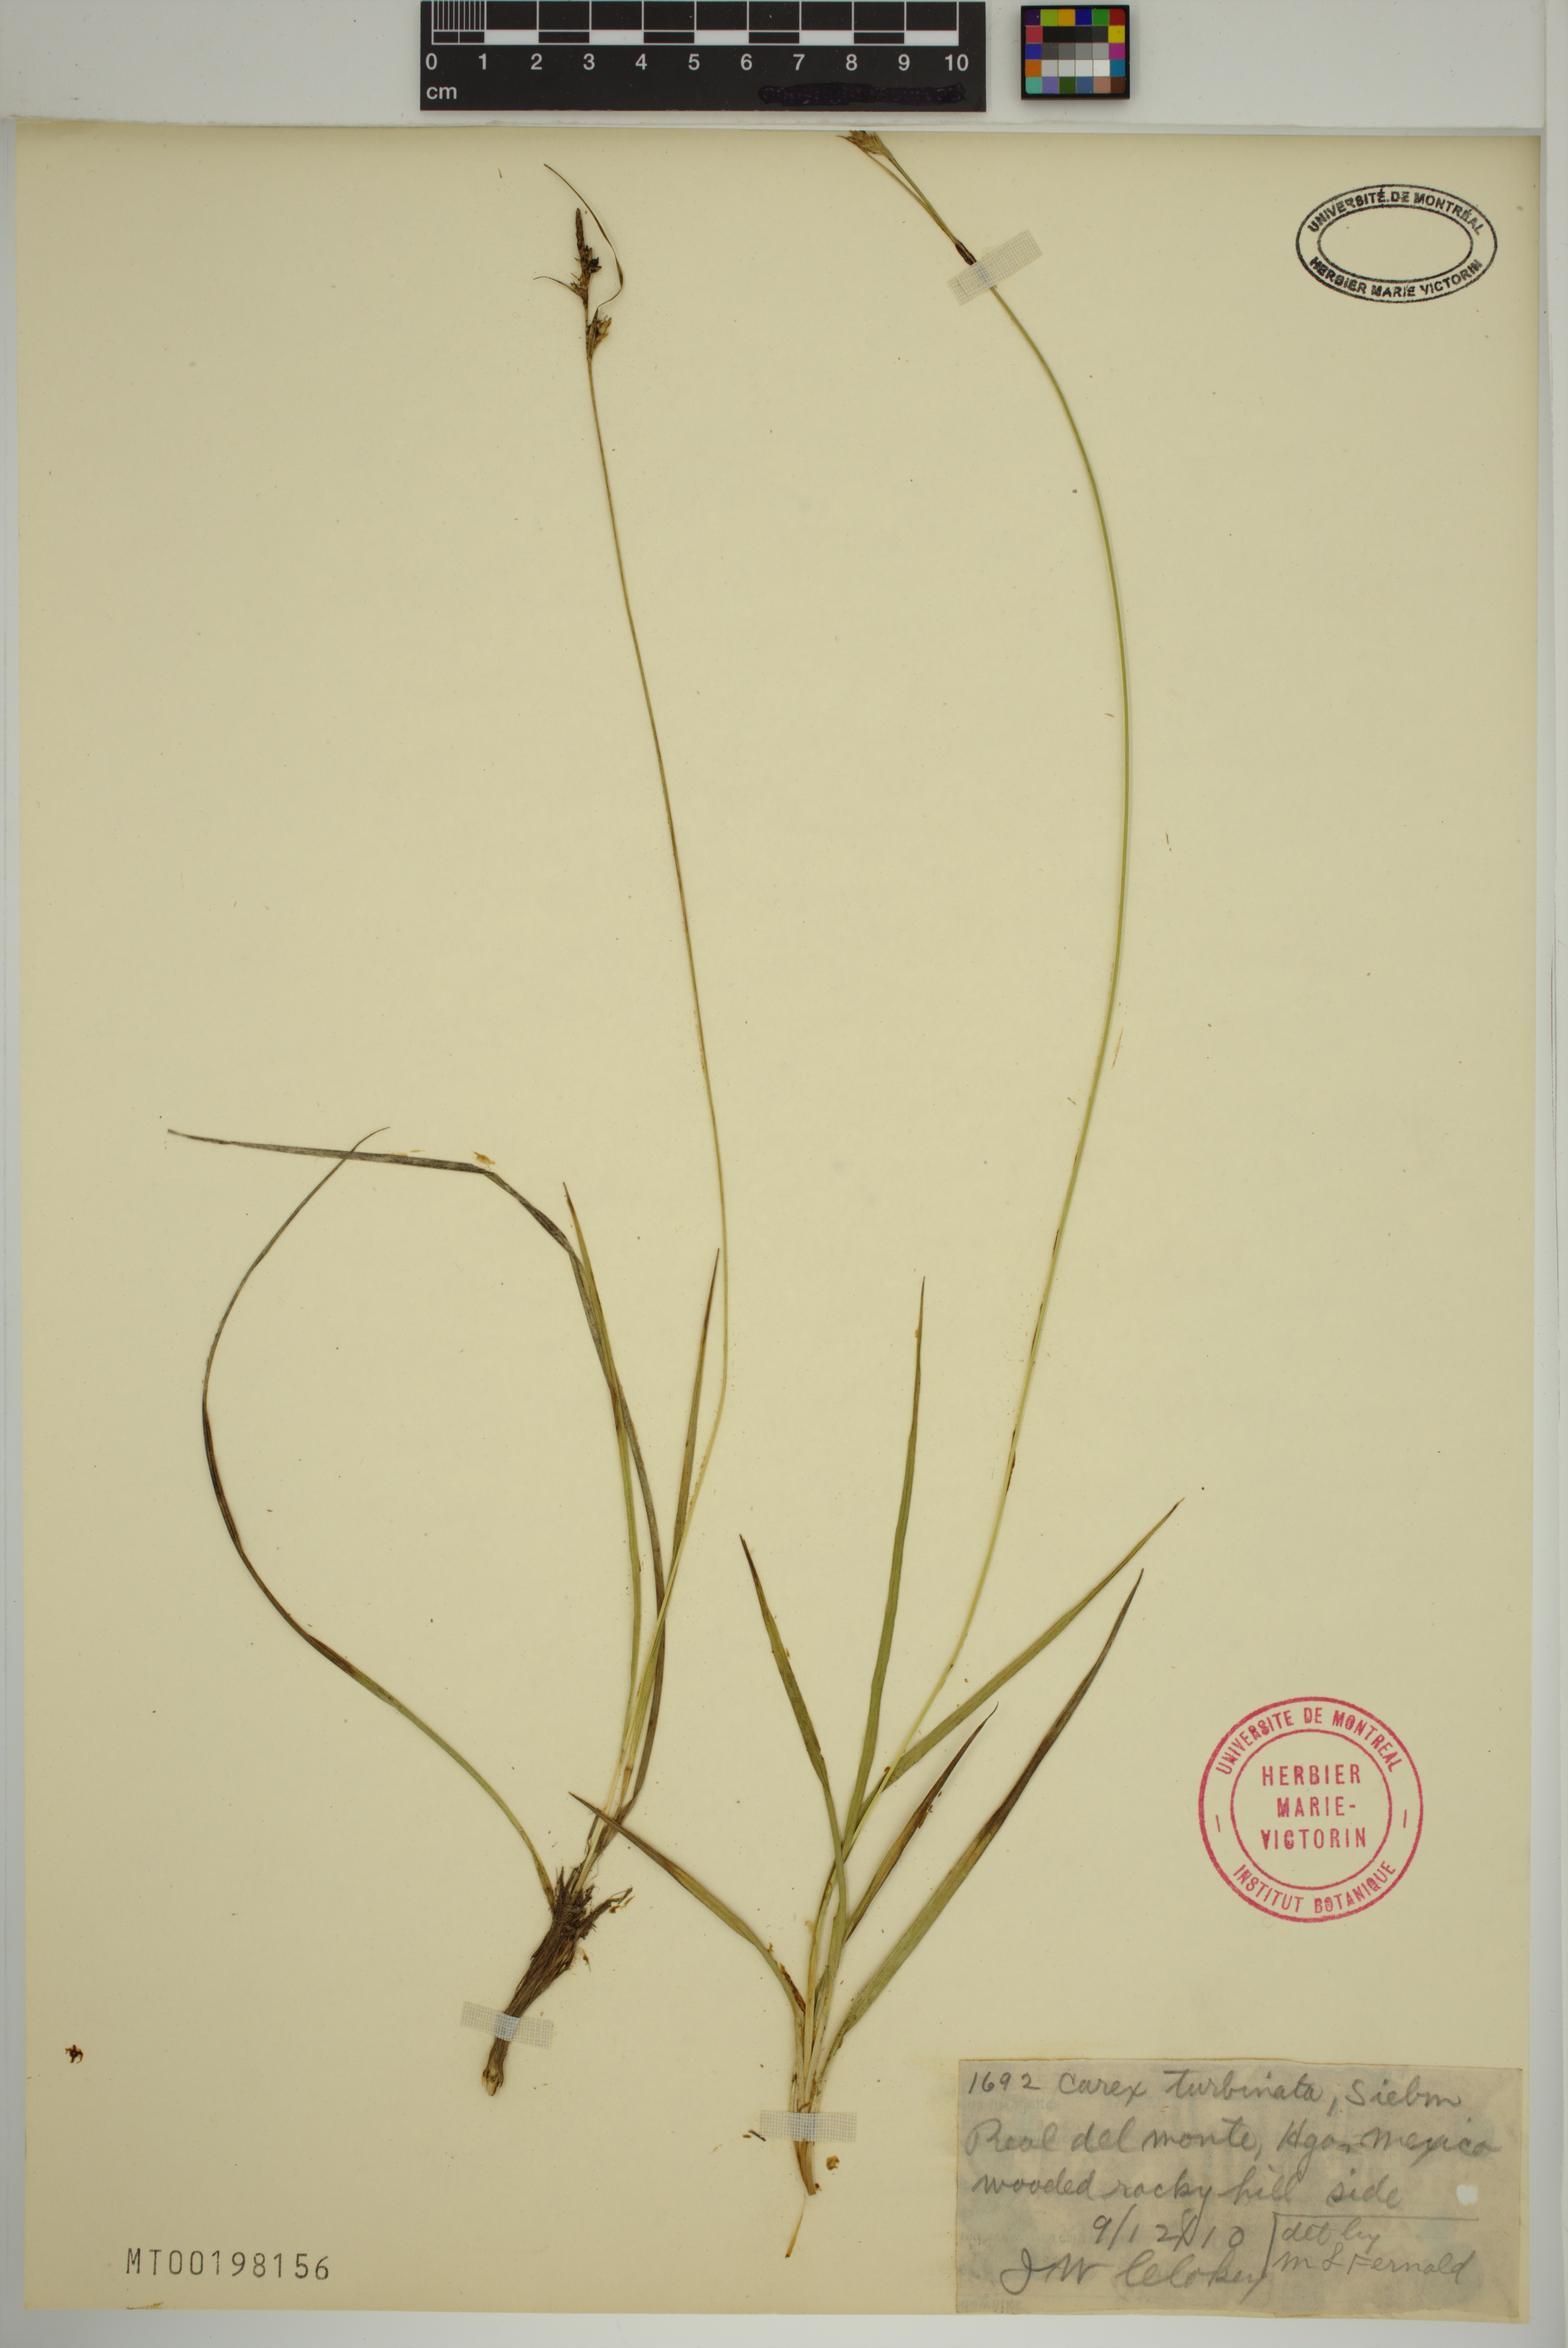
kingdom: Plantae
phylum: Tracheophyta
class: Liliopsida
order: Poales
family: Cyperaceae
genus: Carex
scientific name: Carex turbinata
